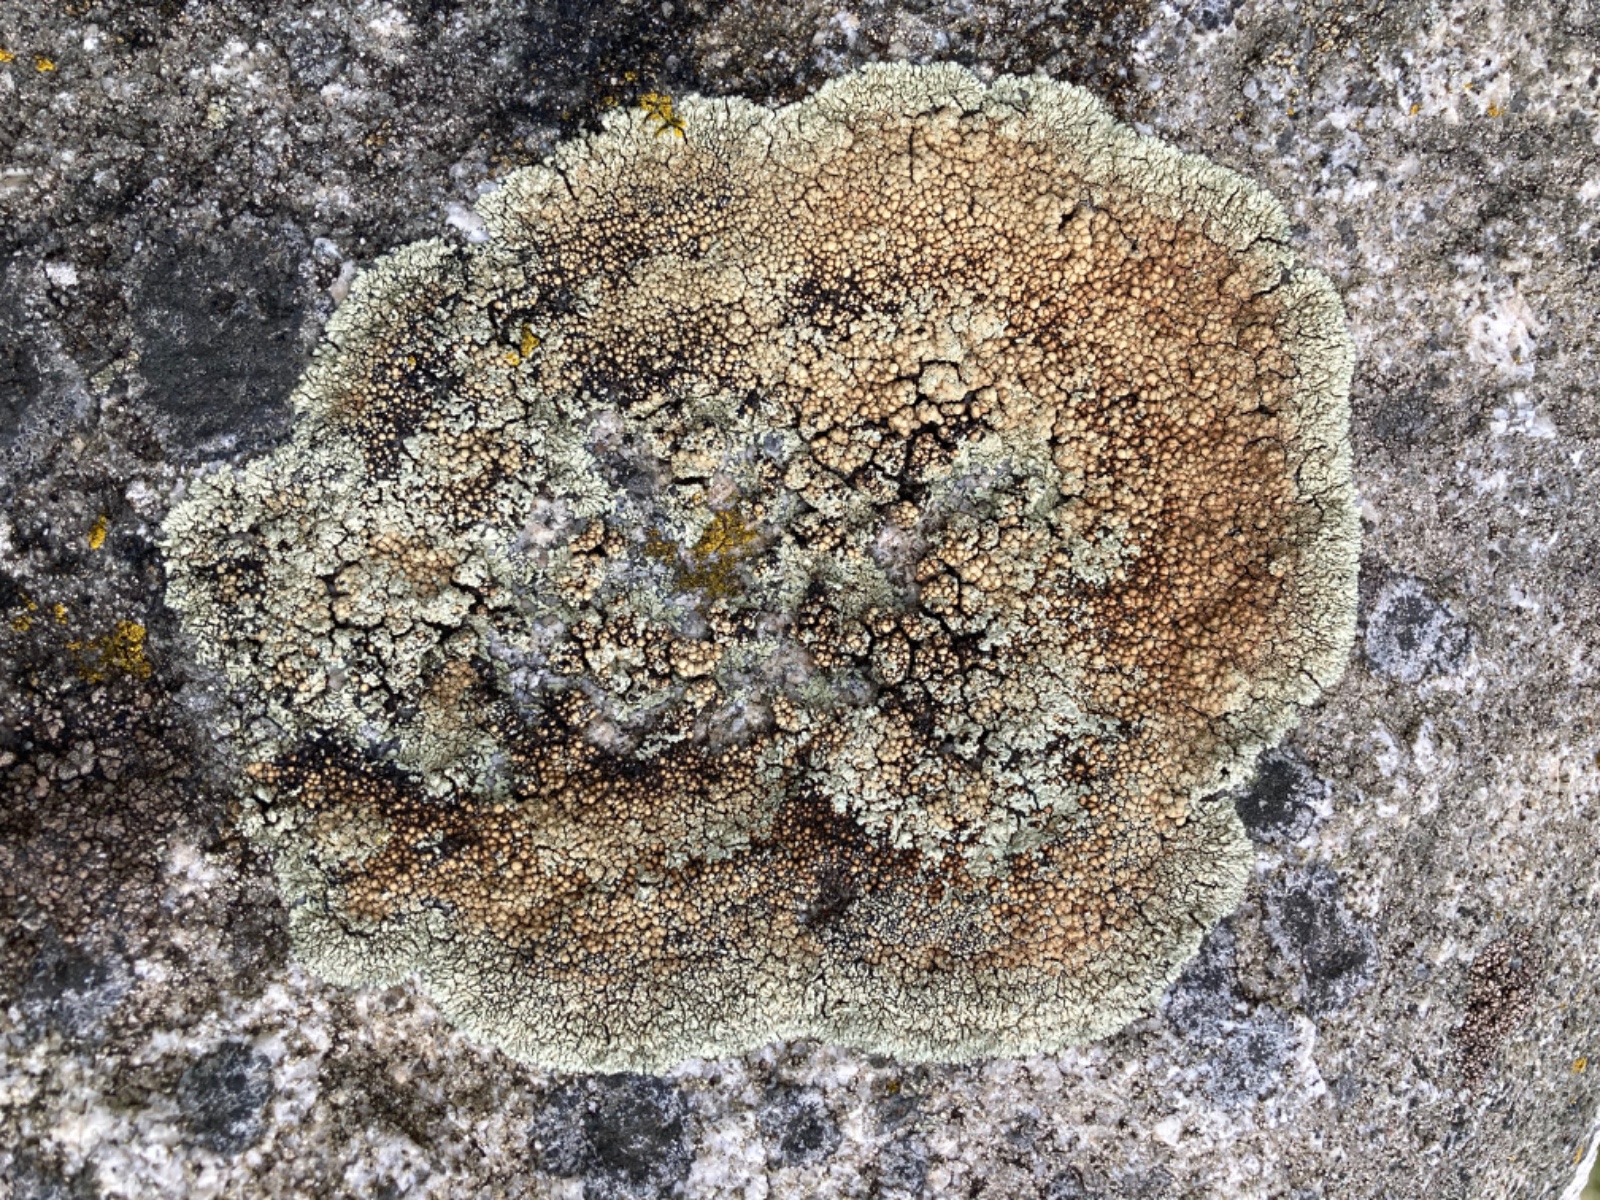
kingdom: Fungi
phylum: Ascomycota
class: Lecanoromycetes
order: Lecanorales
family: Lecanoraceae
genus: Protoparmeliopsis
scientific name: Protoparmeliopsis muralis
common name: randfliget kantskivelav
